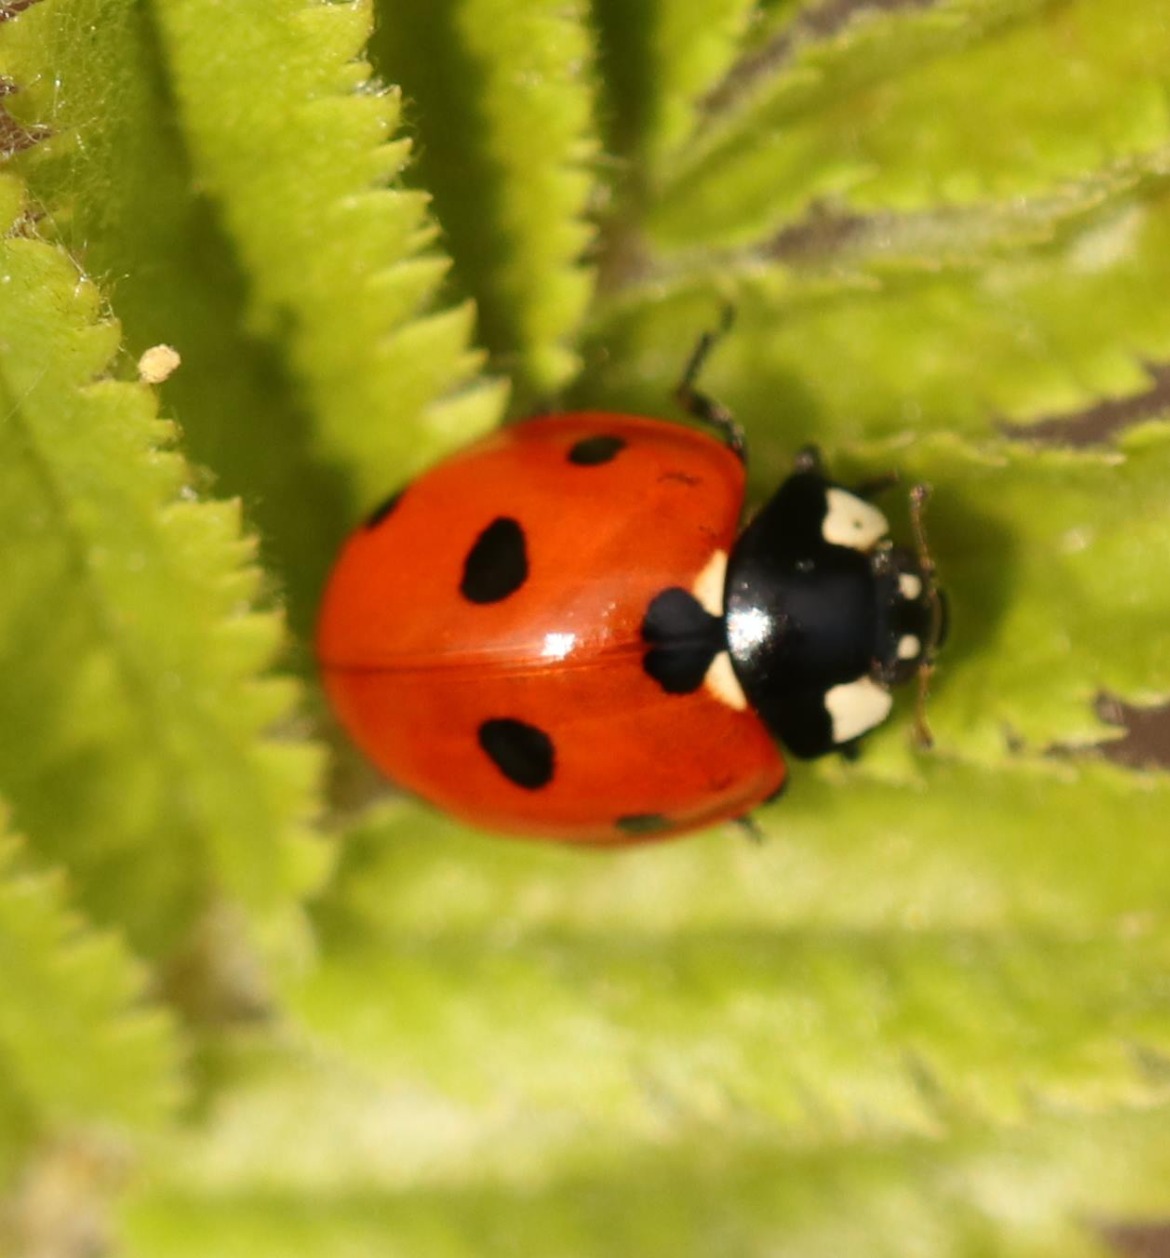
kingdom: Animalia
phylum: Arthropoda
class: Insecta
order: Coleoptera
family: Coccinellidae
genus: Coccinella
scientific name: Coccinella septempunctata
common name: Syvplettet mariehøne
